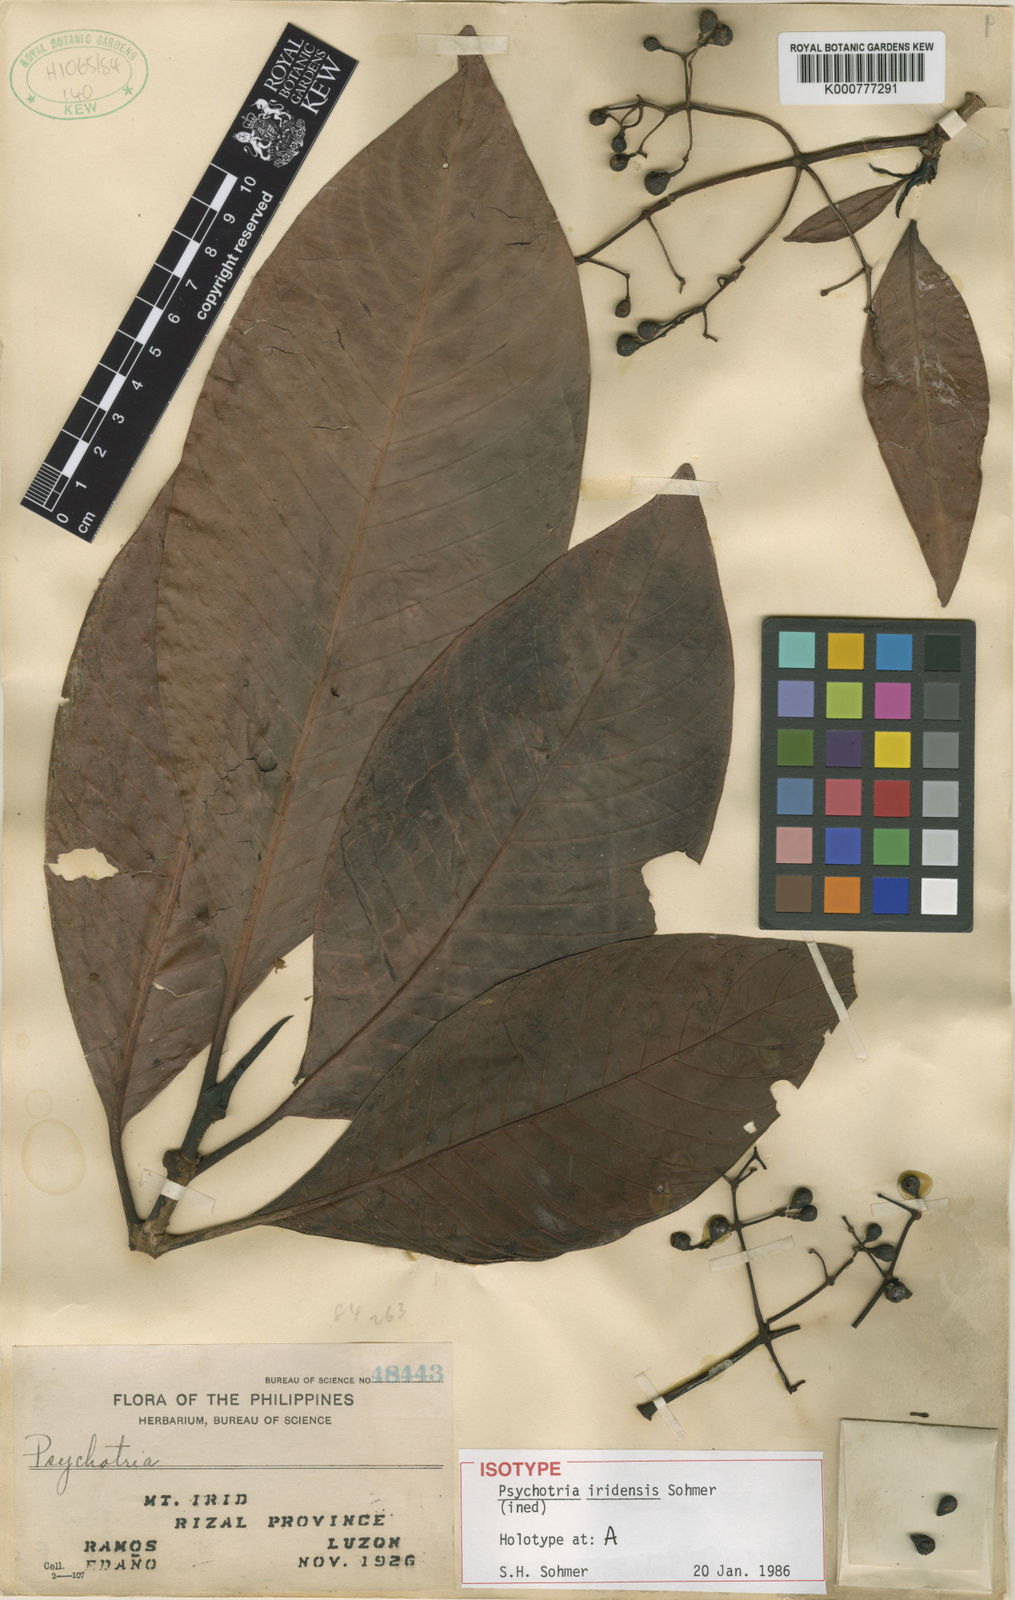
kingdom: Plantae
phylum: Tracheophyta
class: Magnoliopsida
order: Gentianales
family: Rubiaceae
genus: Psychotria
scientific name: Psychotria iridensis
